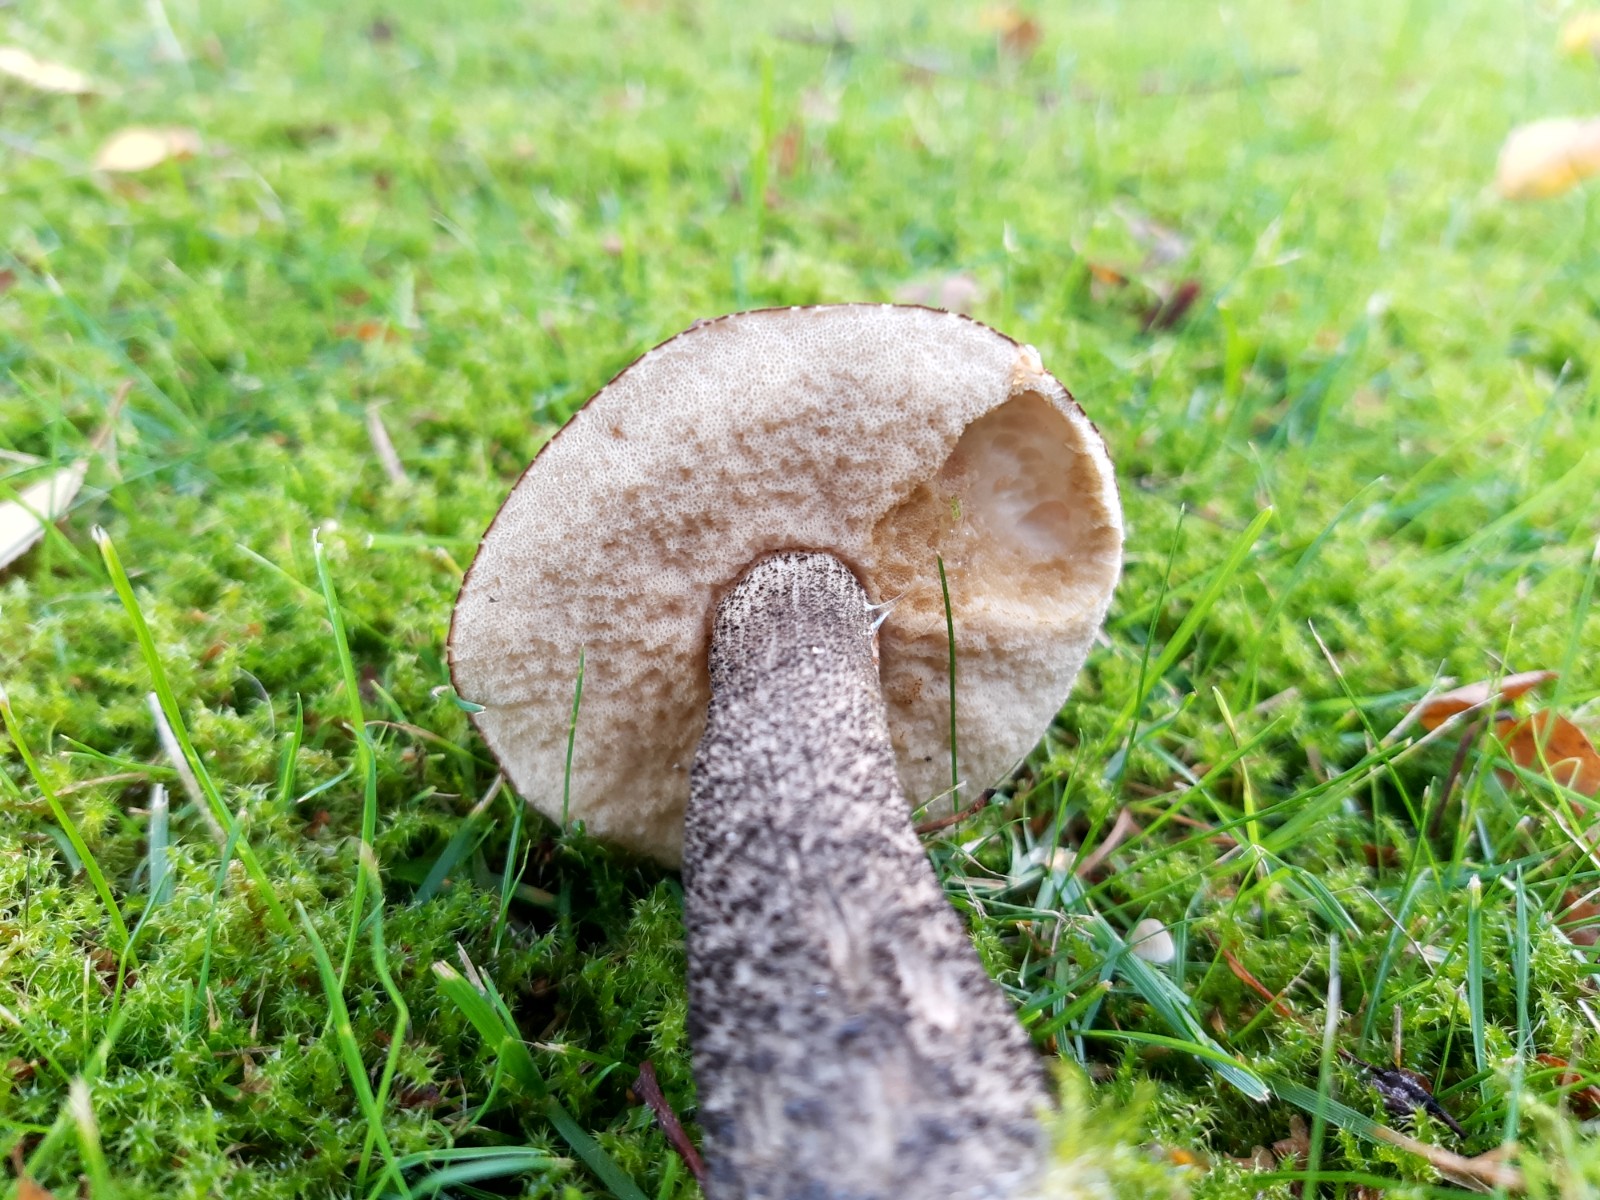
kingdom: Fungi
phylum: Basidiomycota
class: Agaricomycetes
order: Boletales
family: Boletaceae
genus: Leccinum
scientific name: Leccinum scabrum
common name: brun skælrørhat
